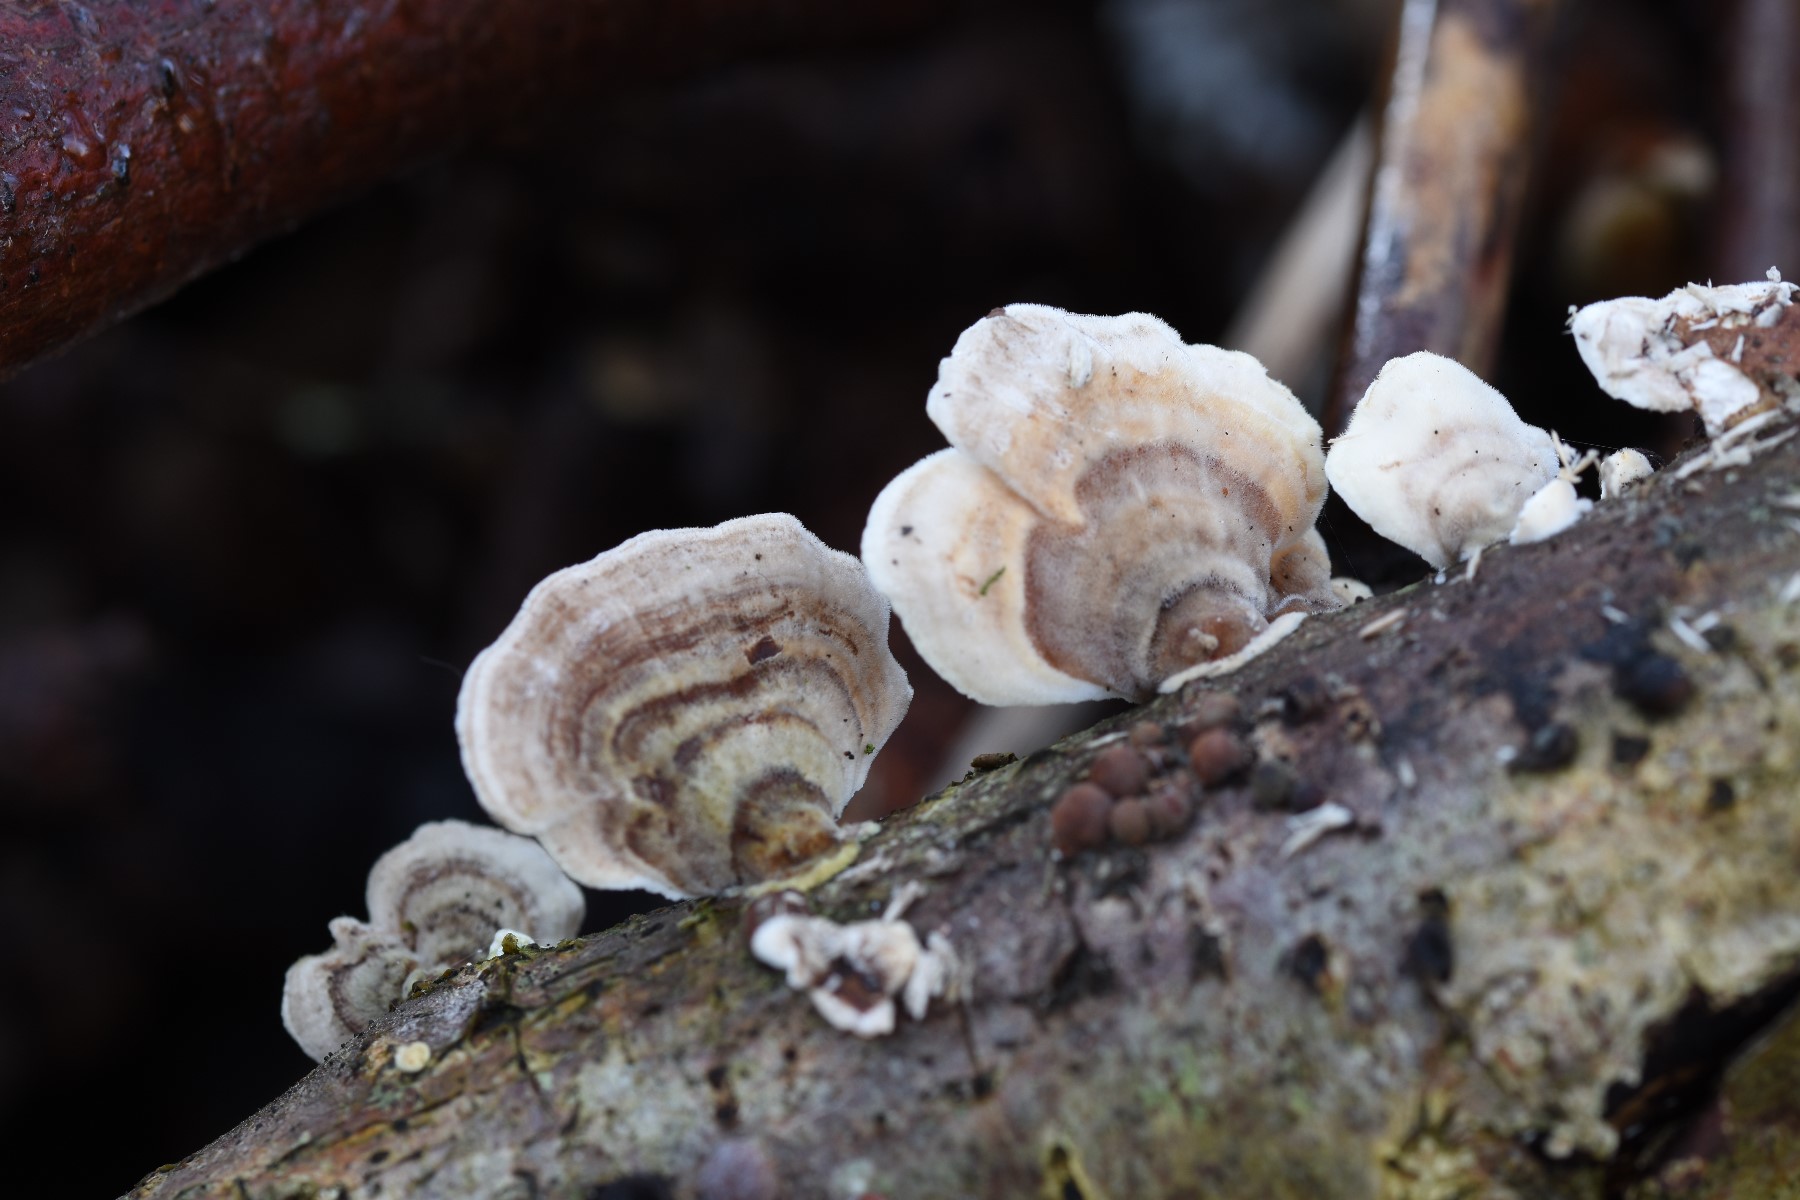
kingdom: Fungi
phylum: Basidiomycota
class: Agaricomycetes
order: Polyporales
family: Polyporaceae
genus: Trametes
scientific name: Trametes ochracea
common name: bæltet læderporesvamp
